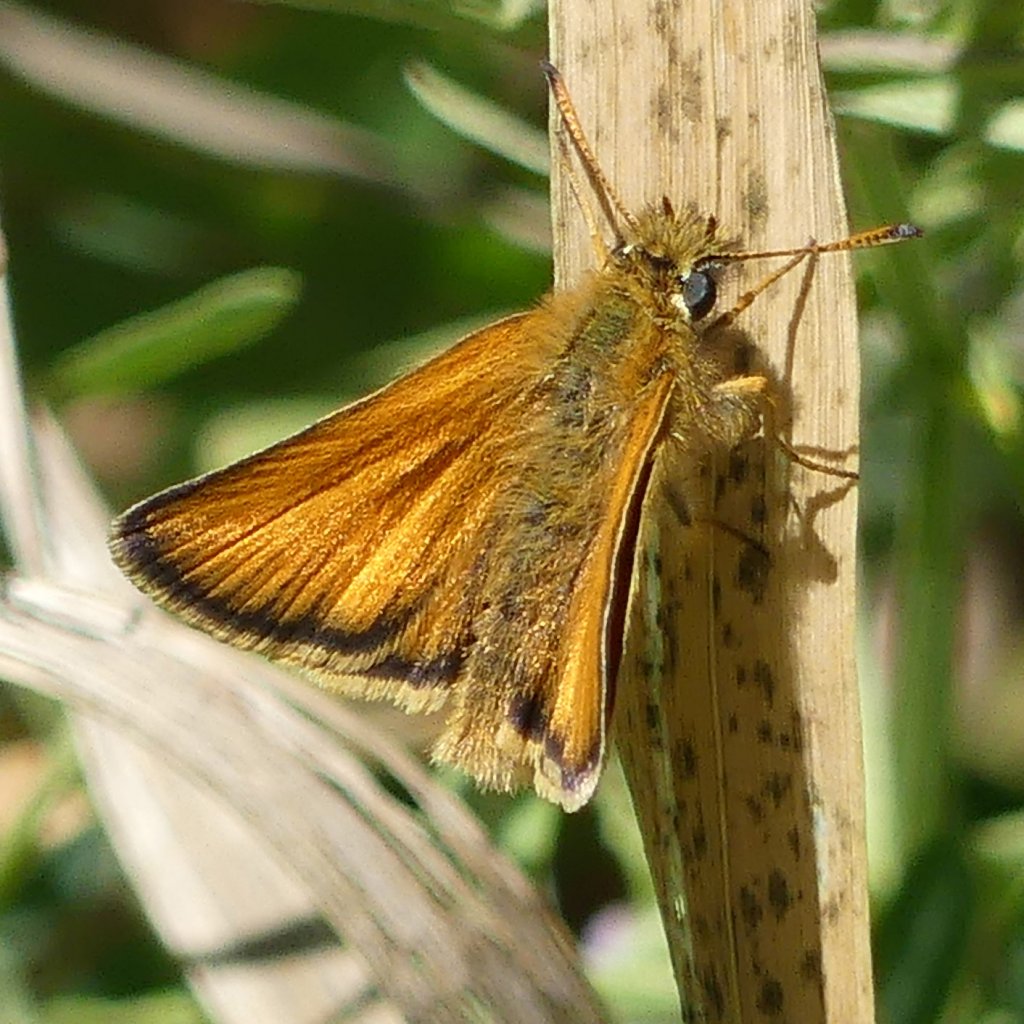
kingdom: Animalia
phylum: Arthropoda
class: Insecta
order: Lepidoptera
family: Hesperiidae
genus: Thymelicus
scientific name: Thymelicus lineola
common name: European Skipper
